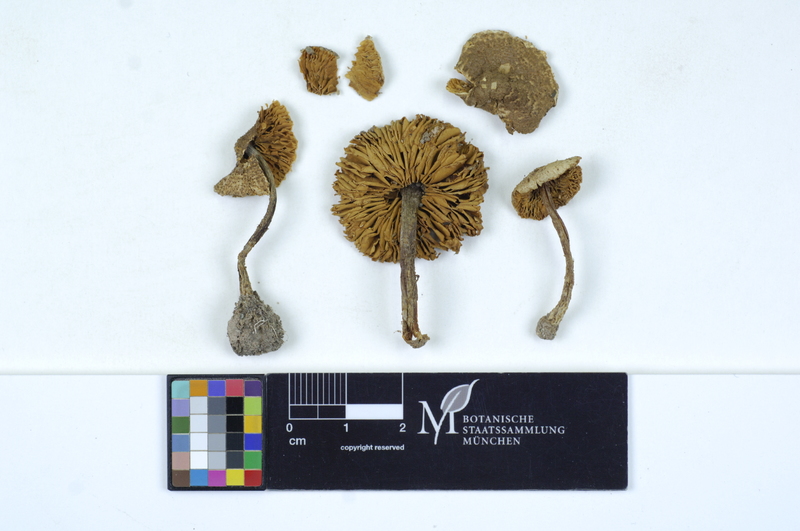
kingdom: Fungi
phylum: Basidiomycota
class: Agaricomycetes
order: Agaricales
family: Agaricaceae
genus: Lepiota
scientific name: Lepiota castanea
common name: Chestnut dapperling
